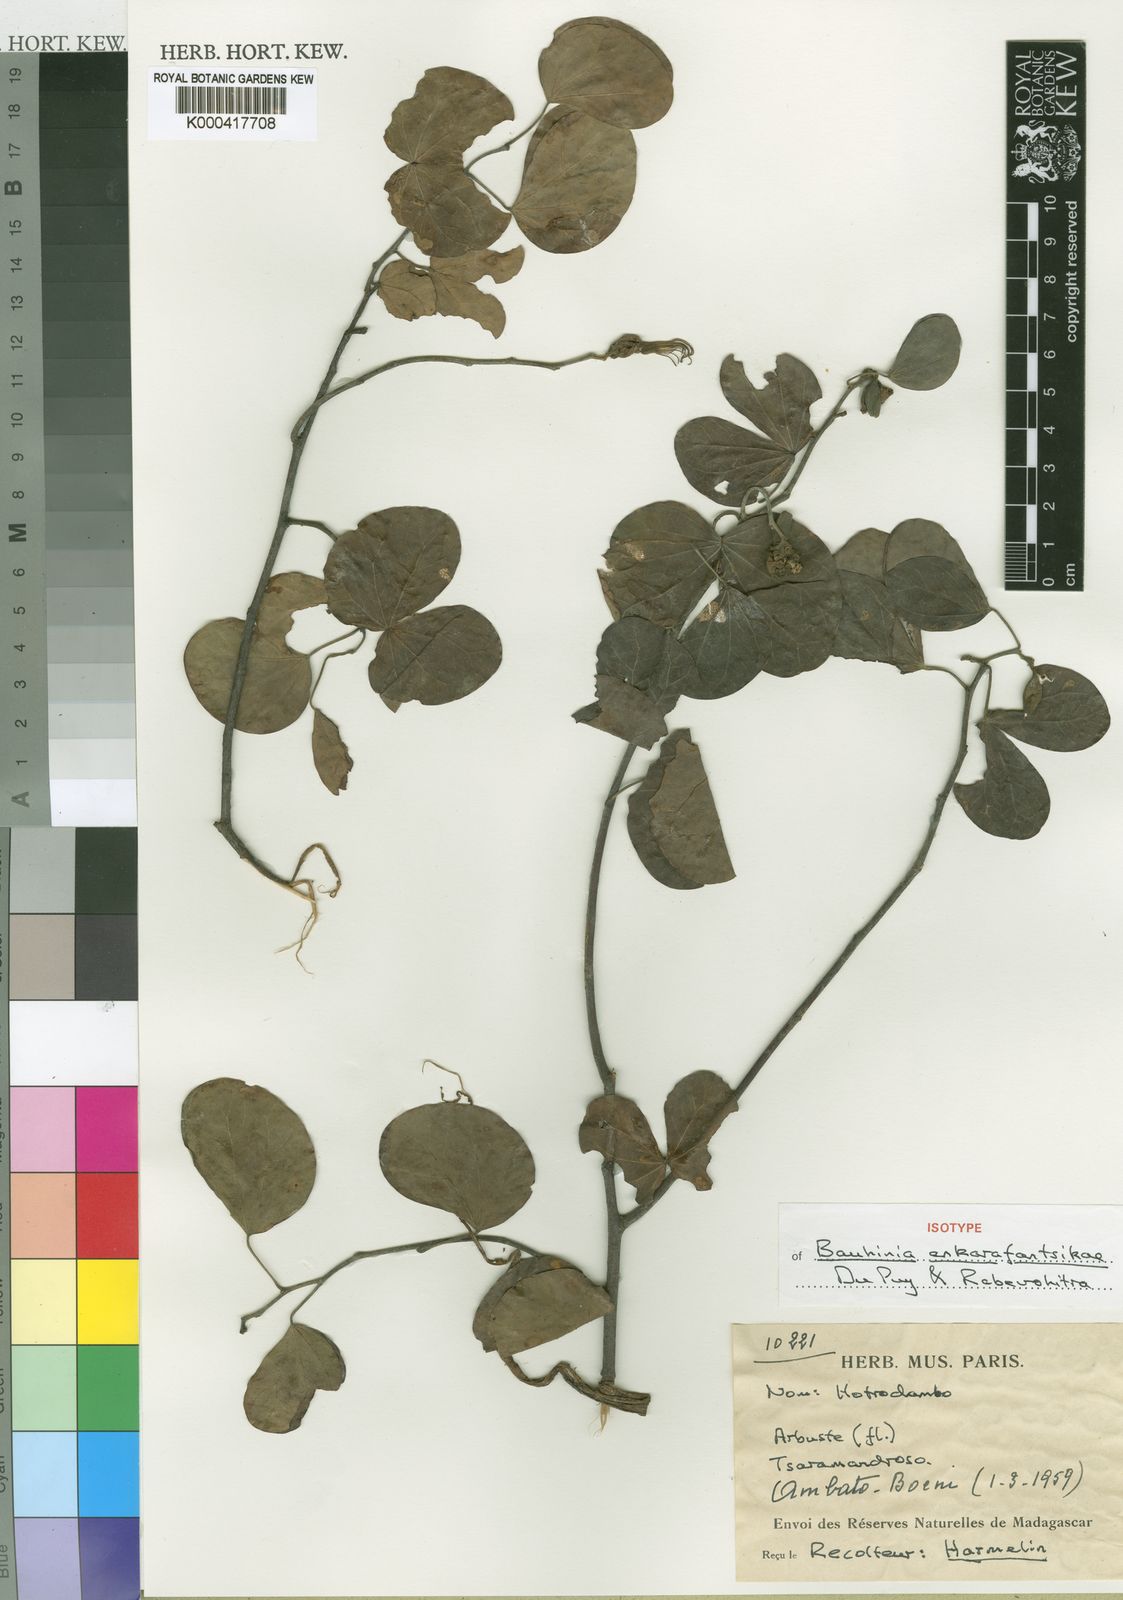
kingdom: Plantae
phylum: Tracheophyta
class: Magnoliopsida
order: Fabales
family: Fabaceae
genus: Bauhinia
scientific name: Bauhinia ankarafantsikae
